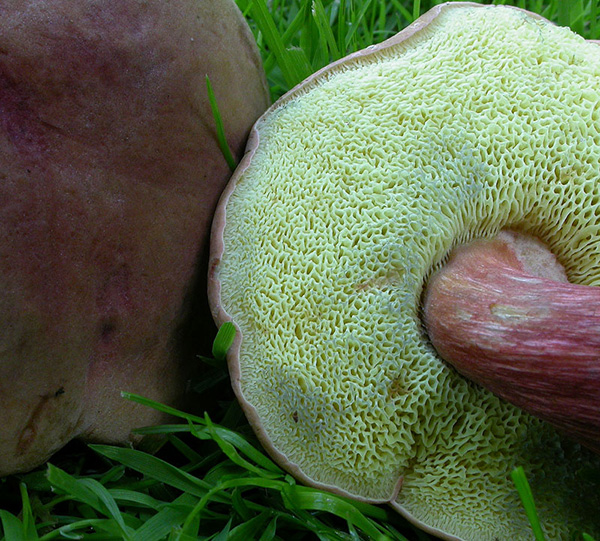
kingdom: Fungi
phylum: Basidiomycota
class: Agaricomycetes
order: Boletales
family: Boletaceae
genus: Hortiboletus
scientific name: Hortiboletus bubalinus
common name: aurora-rørhat
